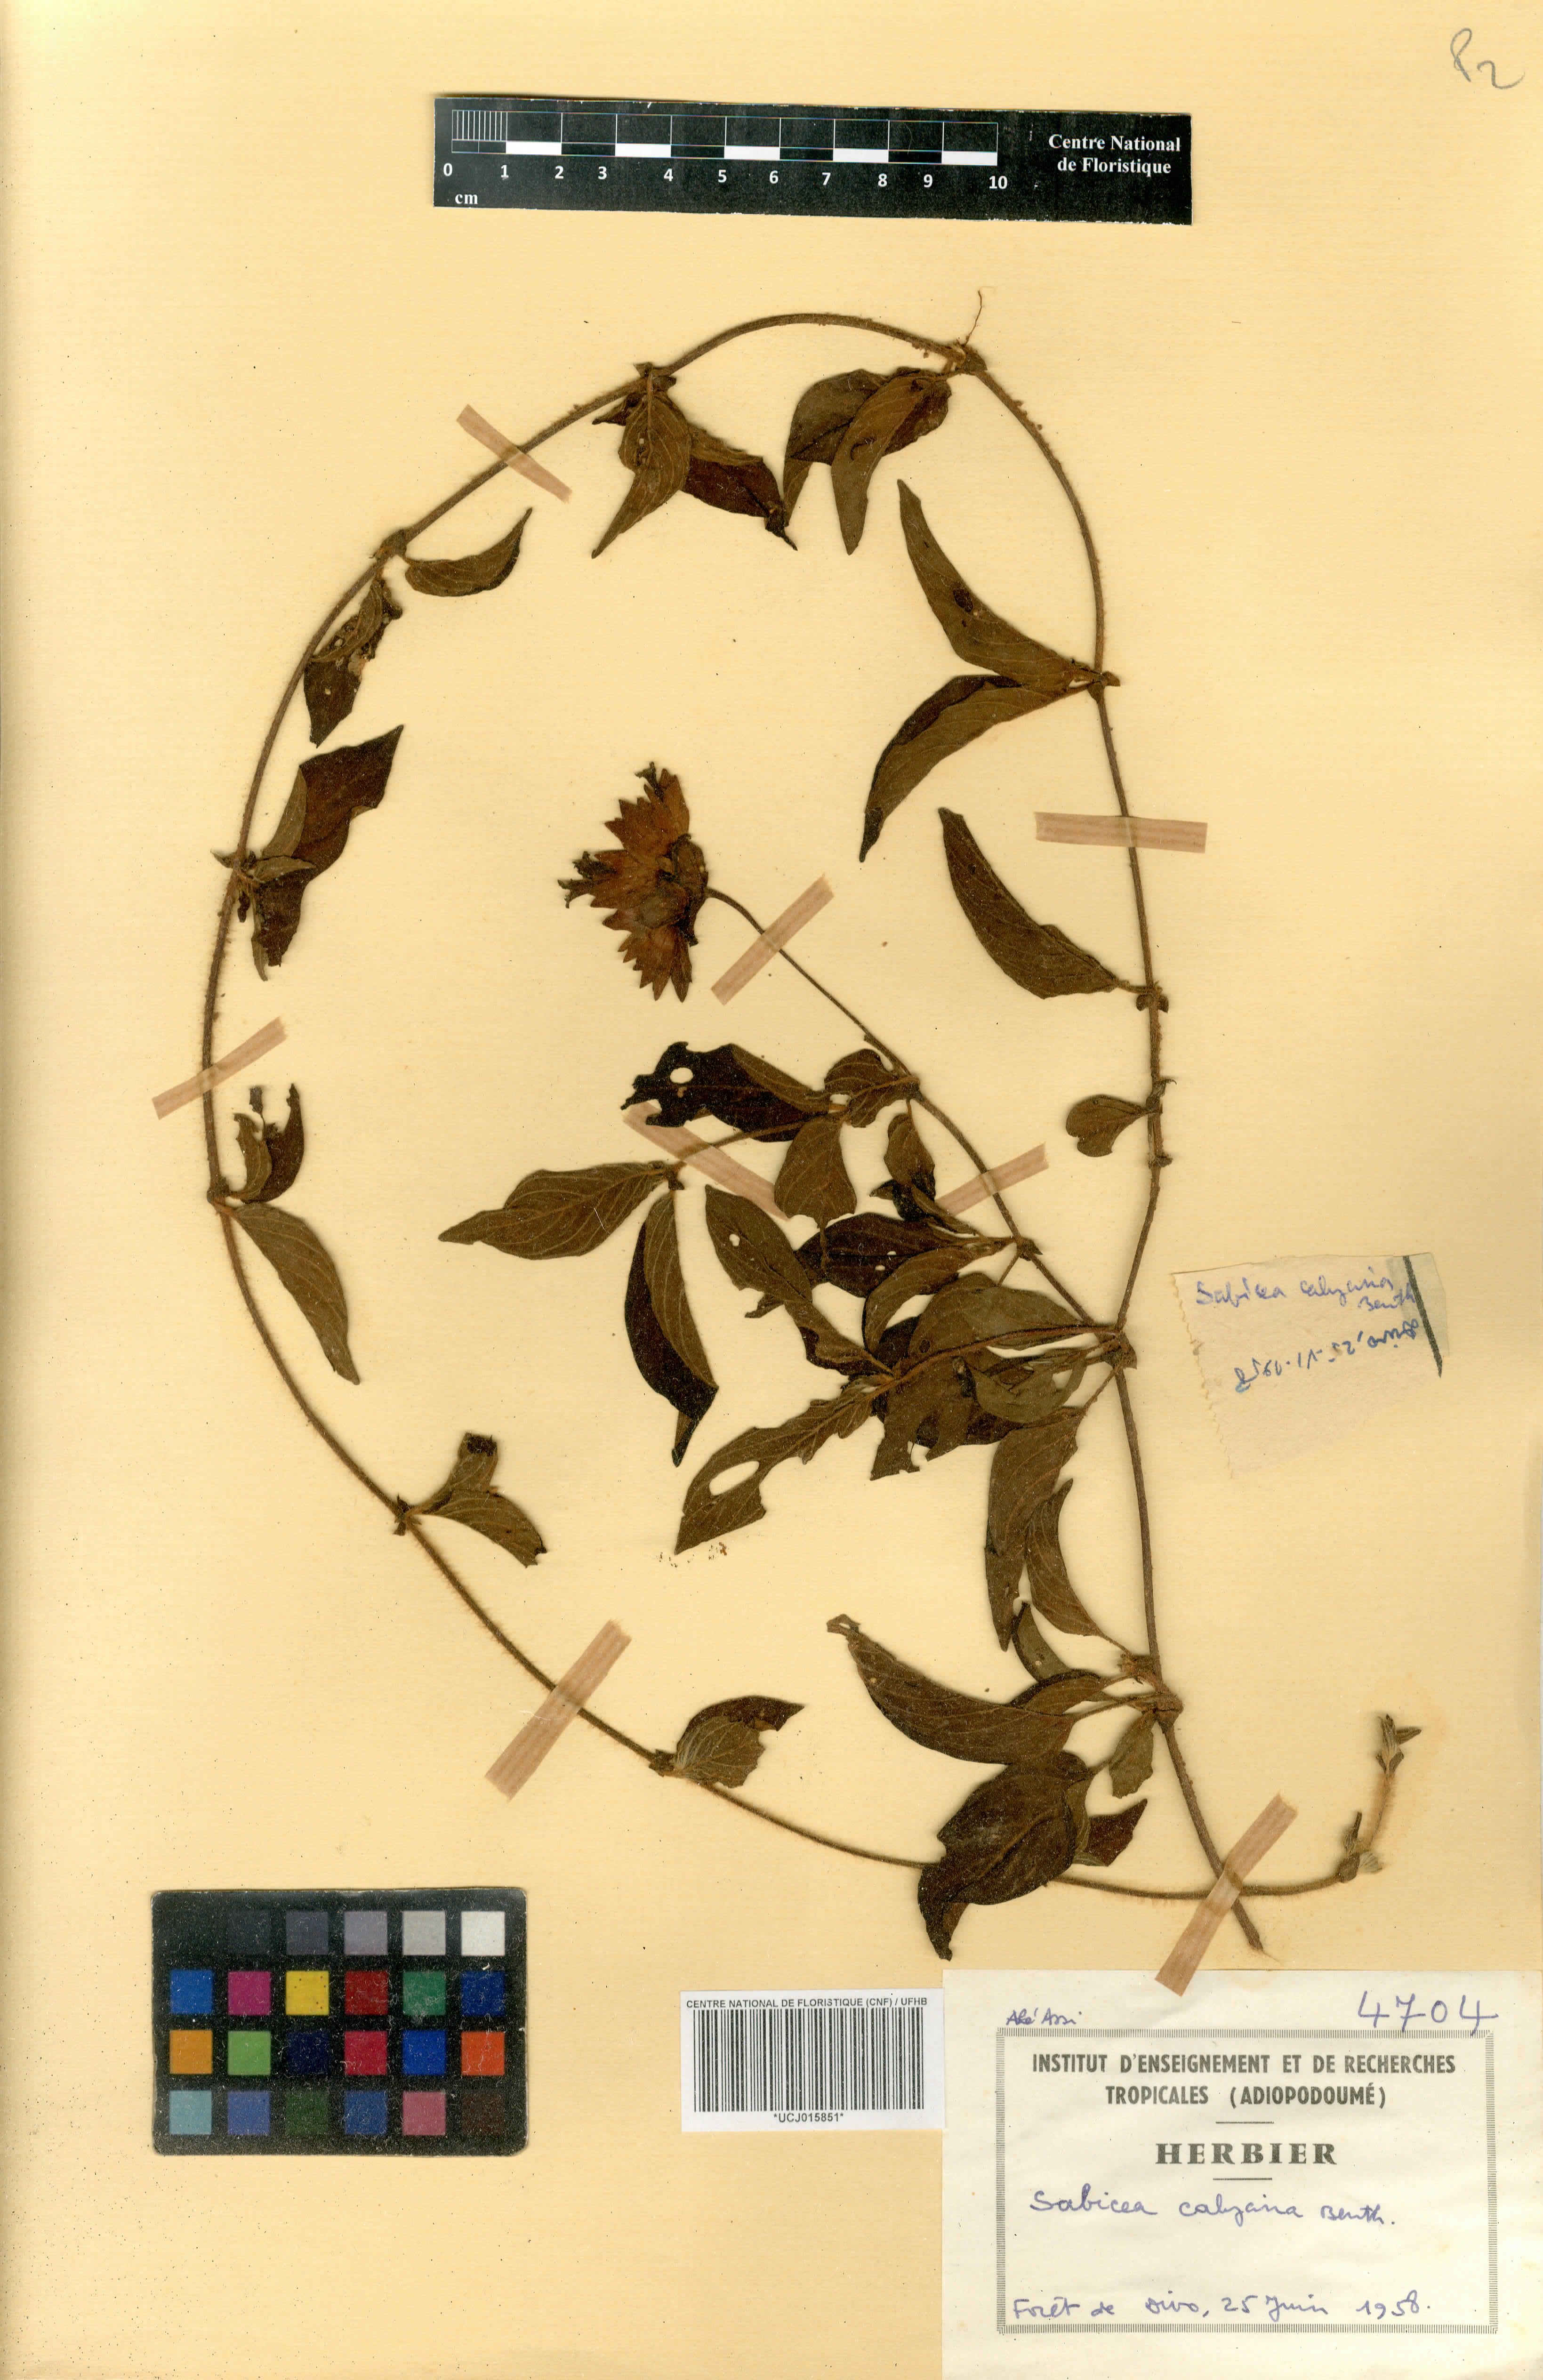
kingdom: Plantae
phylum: Tracheophyta
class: Magnoliopsida
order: Gentianales
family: Rubiaceae
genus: Sabicea
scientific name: Sabicea calycina
